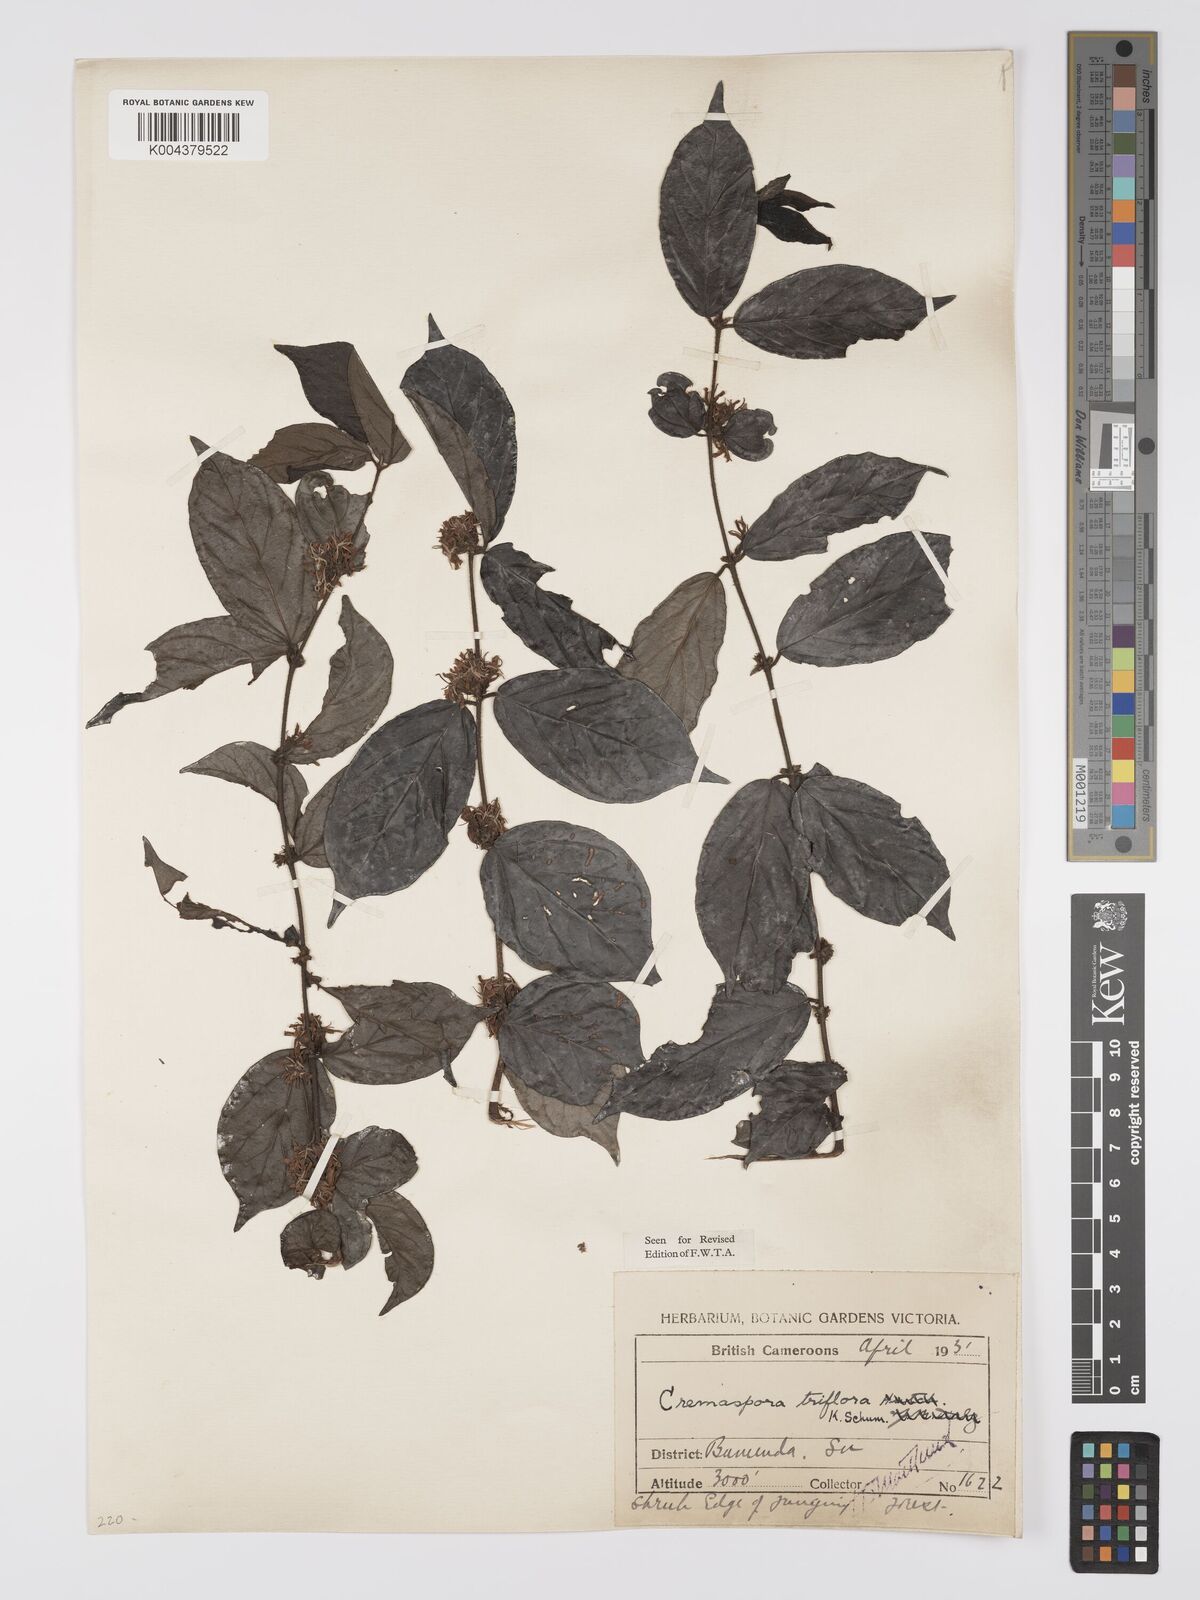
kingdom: Plantae
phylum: Tracheophyta
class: Magnoliopsida
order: Gentianales
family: Rubiaceae
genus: Cremaspora
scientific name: Cremaspora triflora
